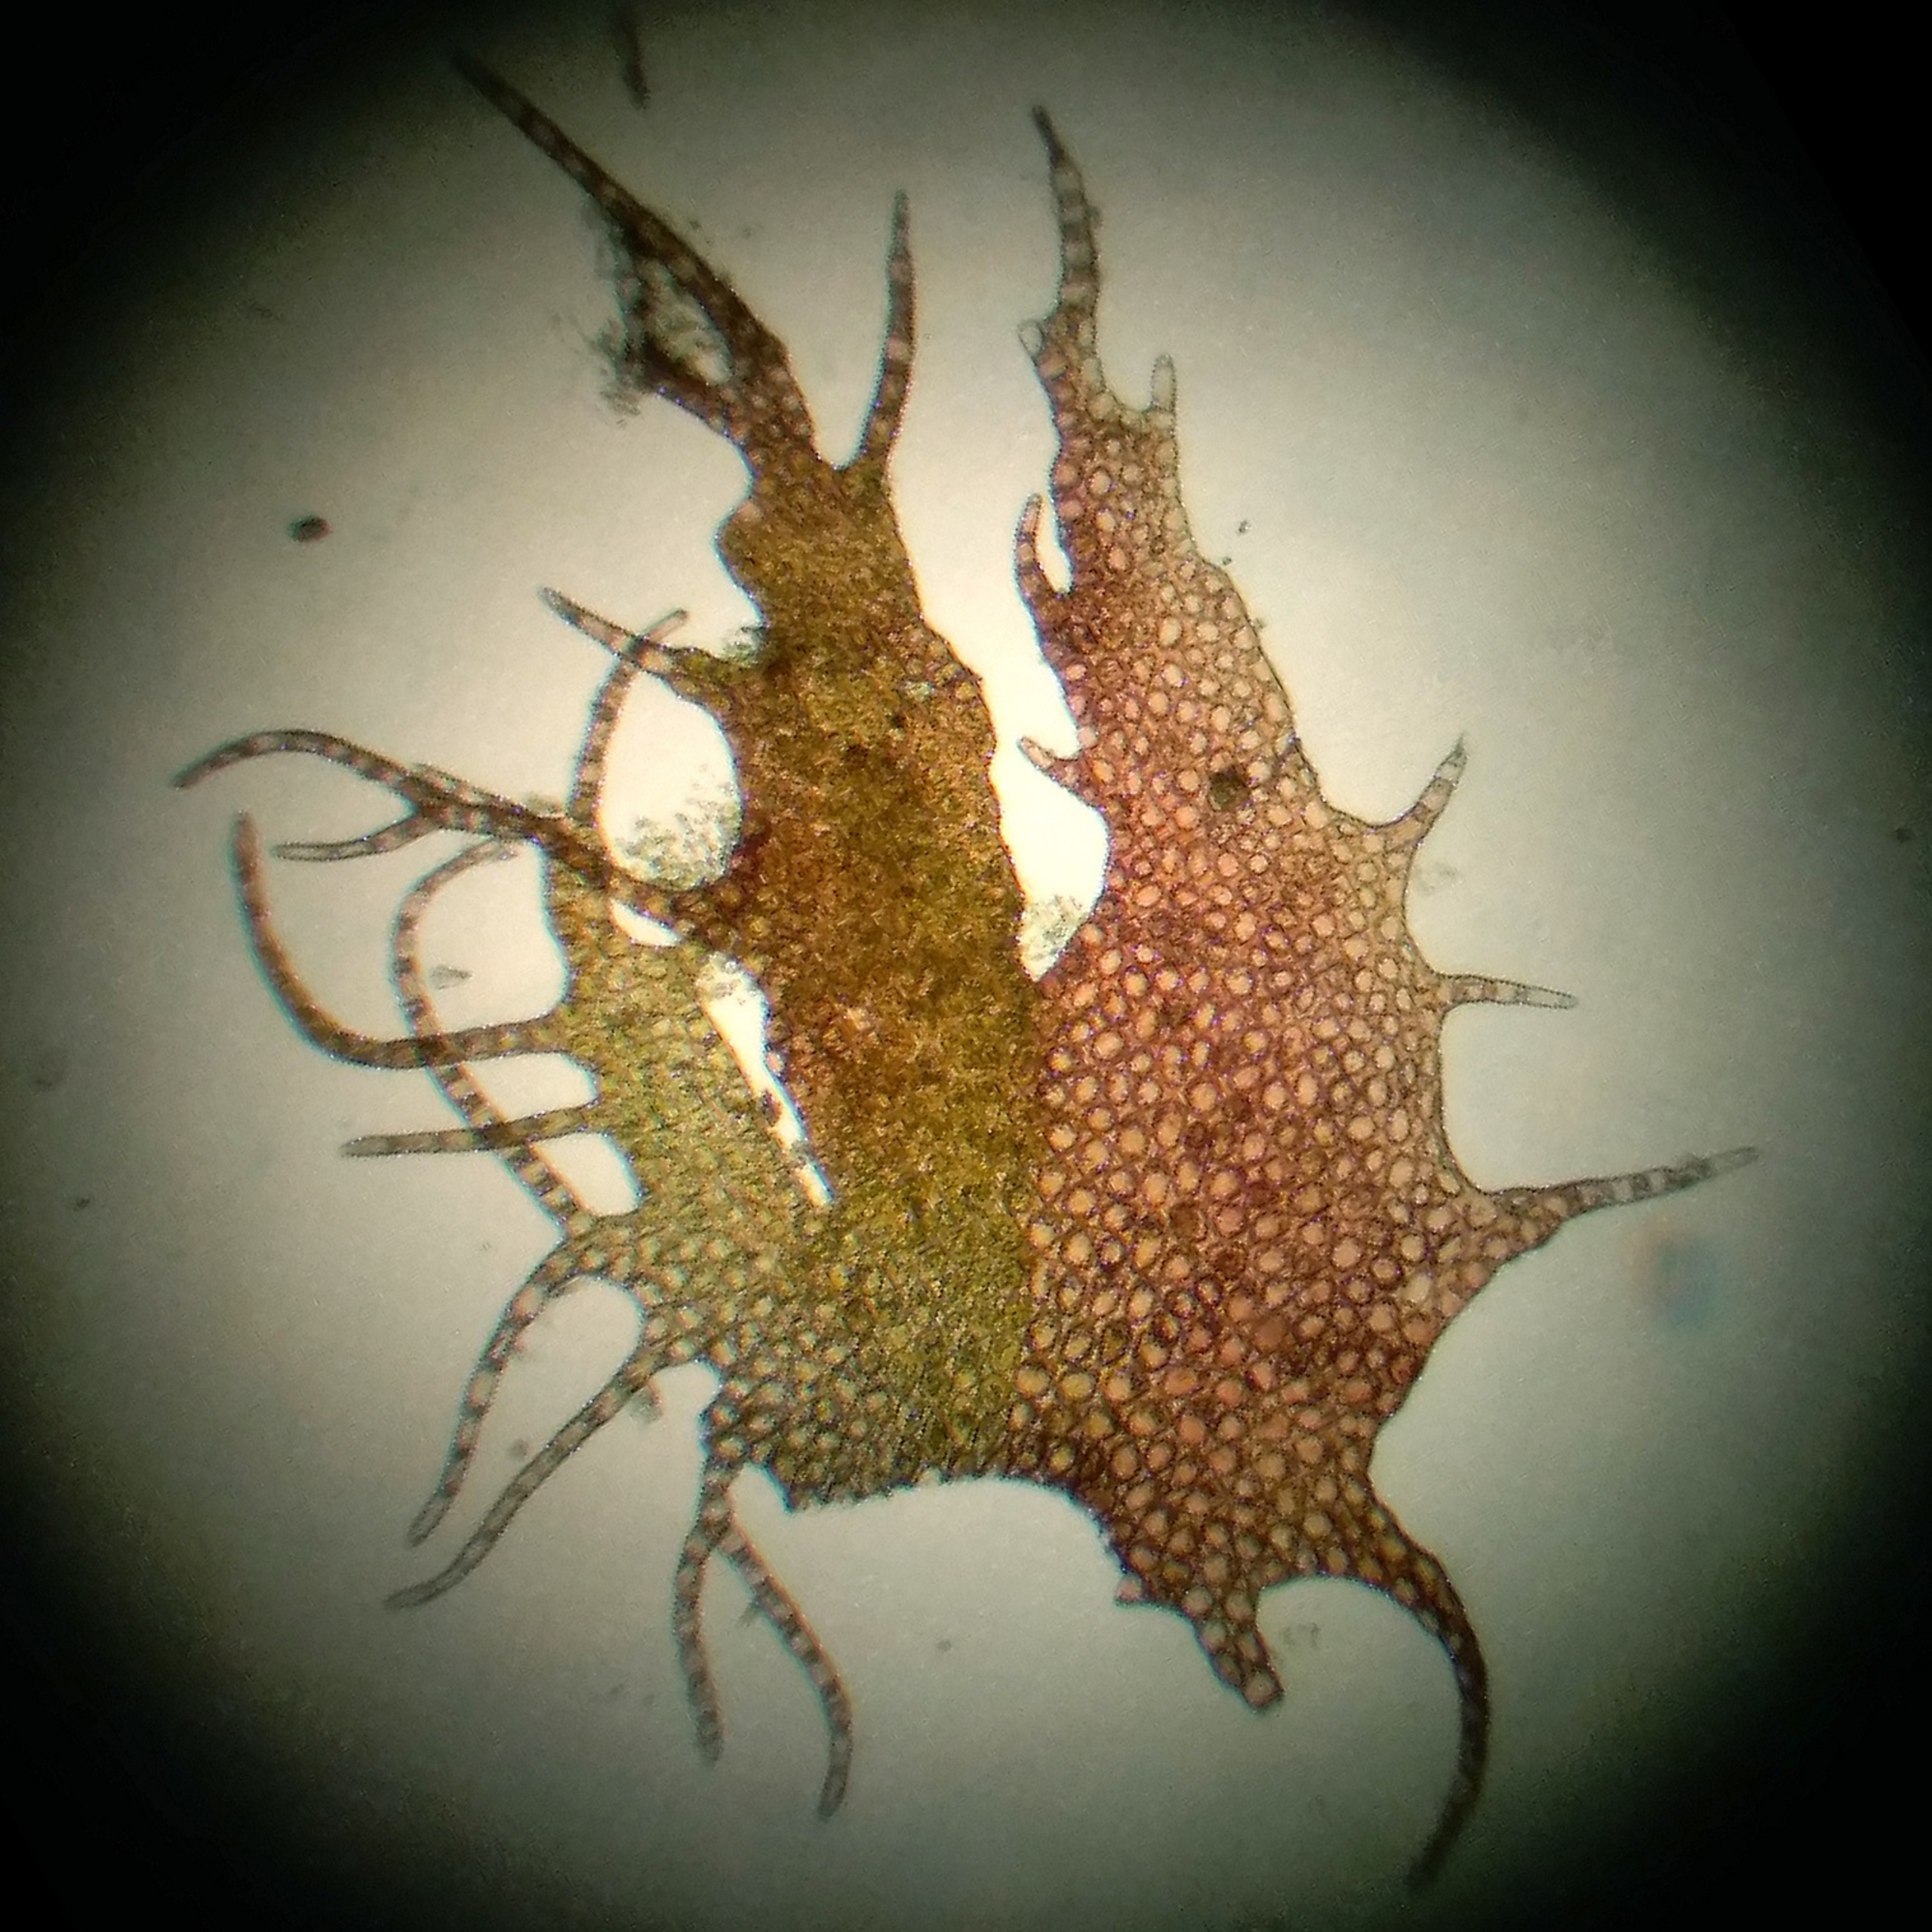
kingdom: Plantae
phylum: Marchantiophyta
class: Jungermanniopsida
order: Ptilidiales
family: Ptilidiaceae
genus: Ptilidium
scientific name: Ptilidium ciliare
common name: Almindelig frynsemos
